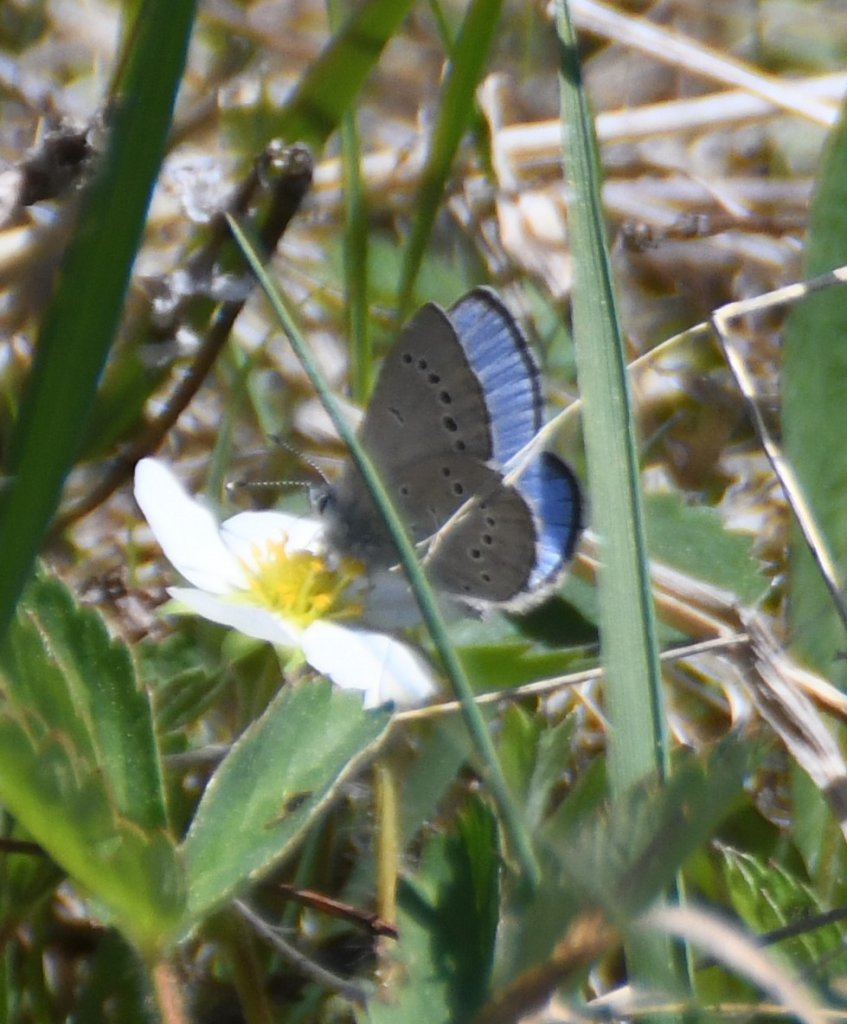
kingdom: Animalia
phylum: Arthropoda
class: Insecta
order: Lepidoptera
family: Lycaenidae
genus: Glaucopsyche
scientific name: Glaucopsyche lygdamus
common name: Silvery Blue
